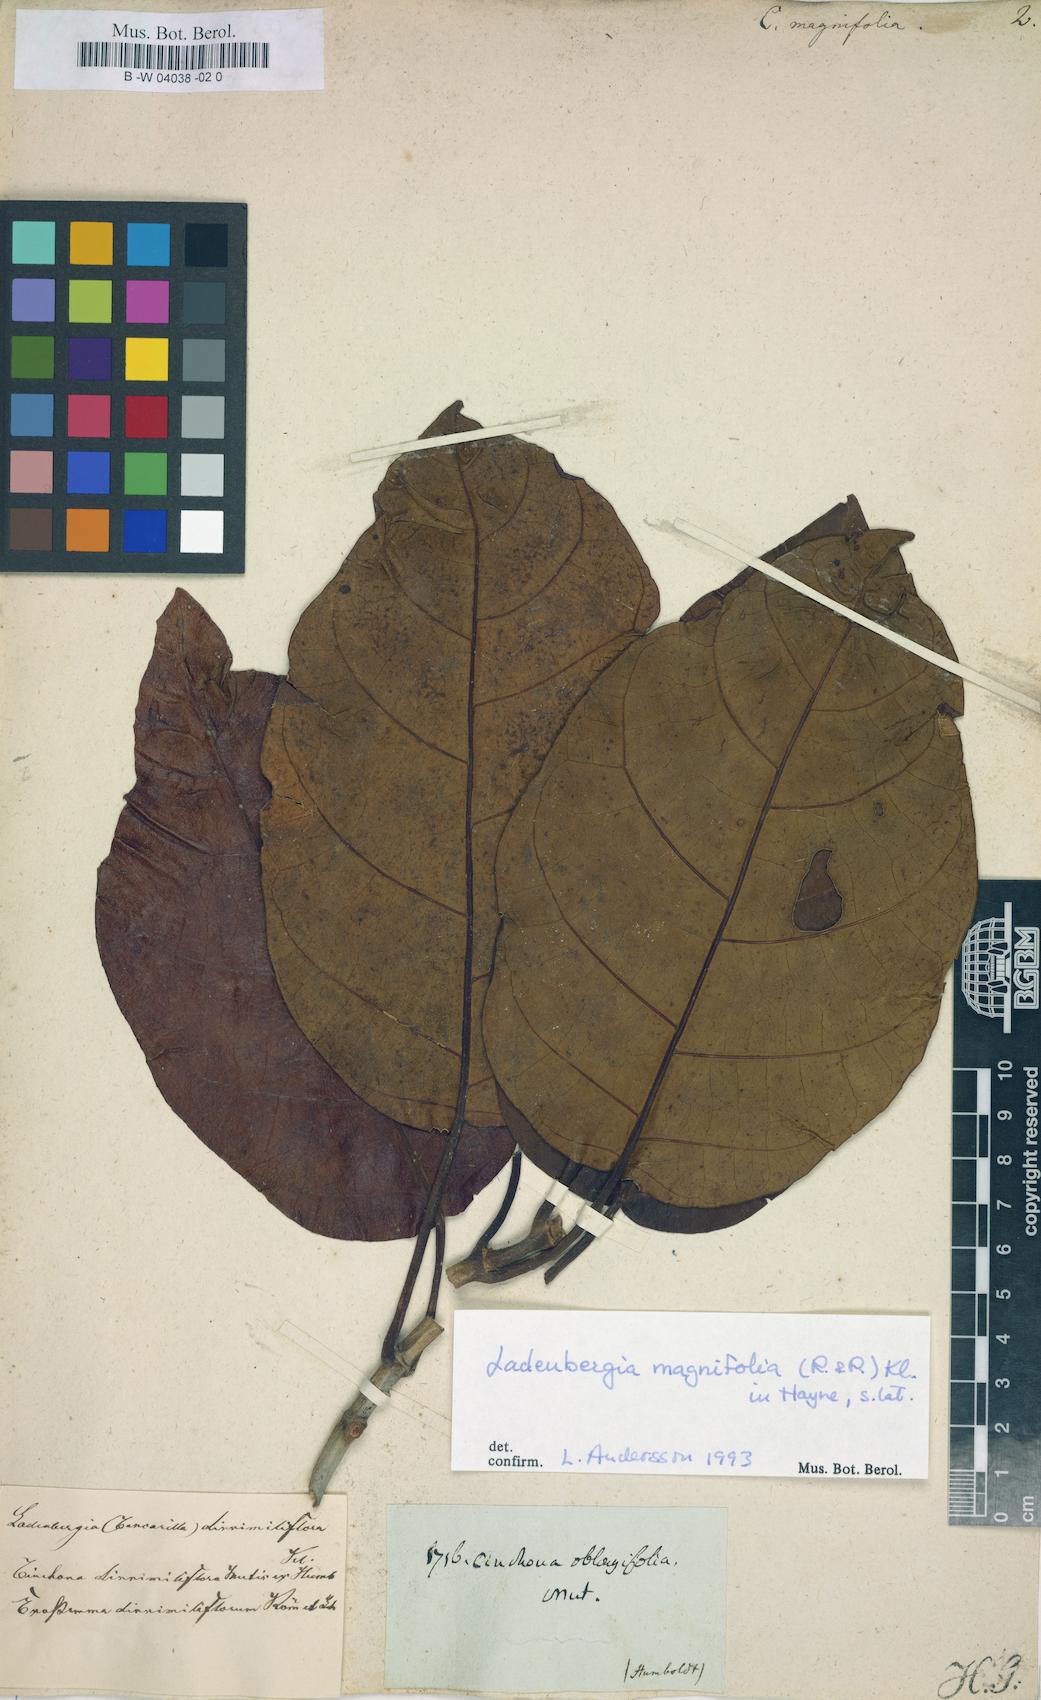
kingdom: Plantae
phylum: Tracheophyta
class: Magnoliopsida
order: Gentianales
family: Rubiaceae
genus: Cinchona
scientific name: Cinchona magnifolia
